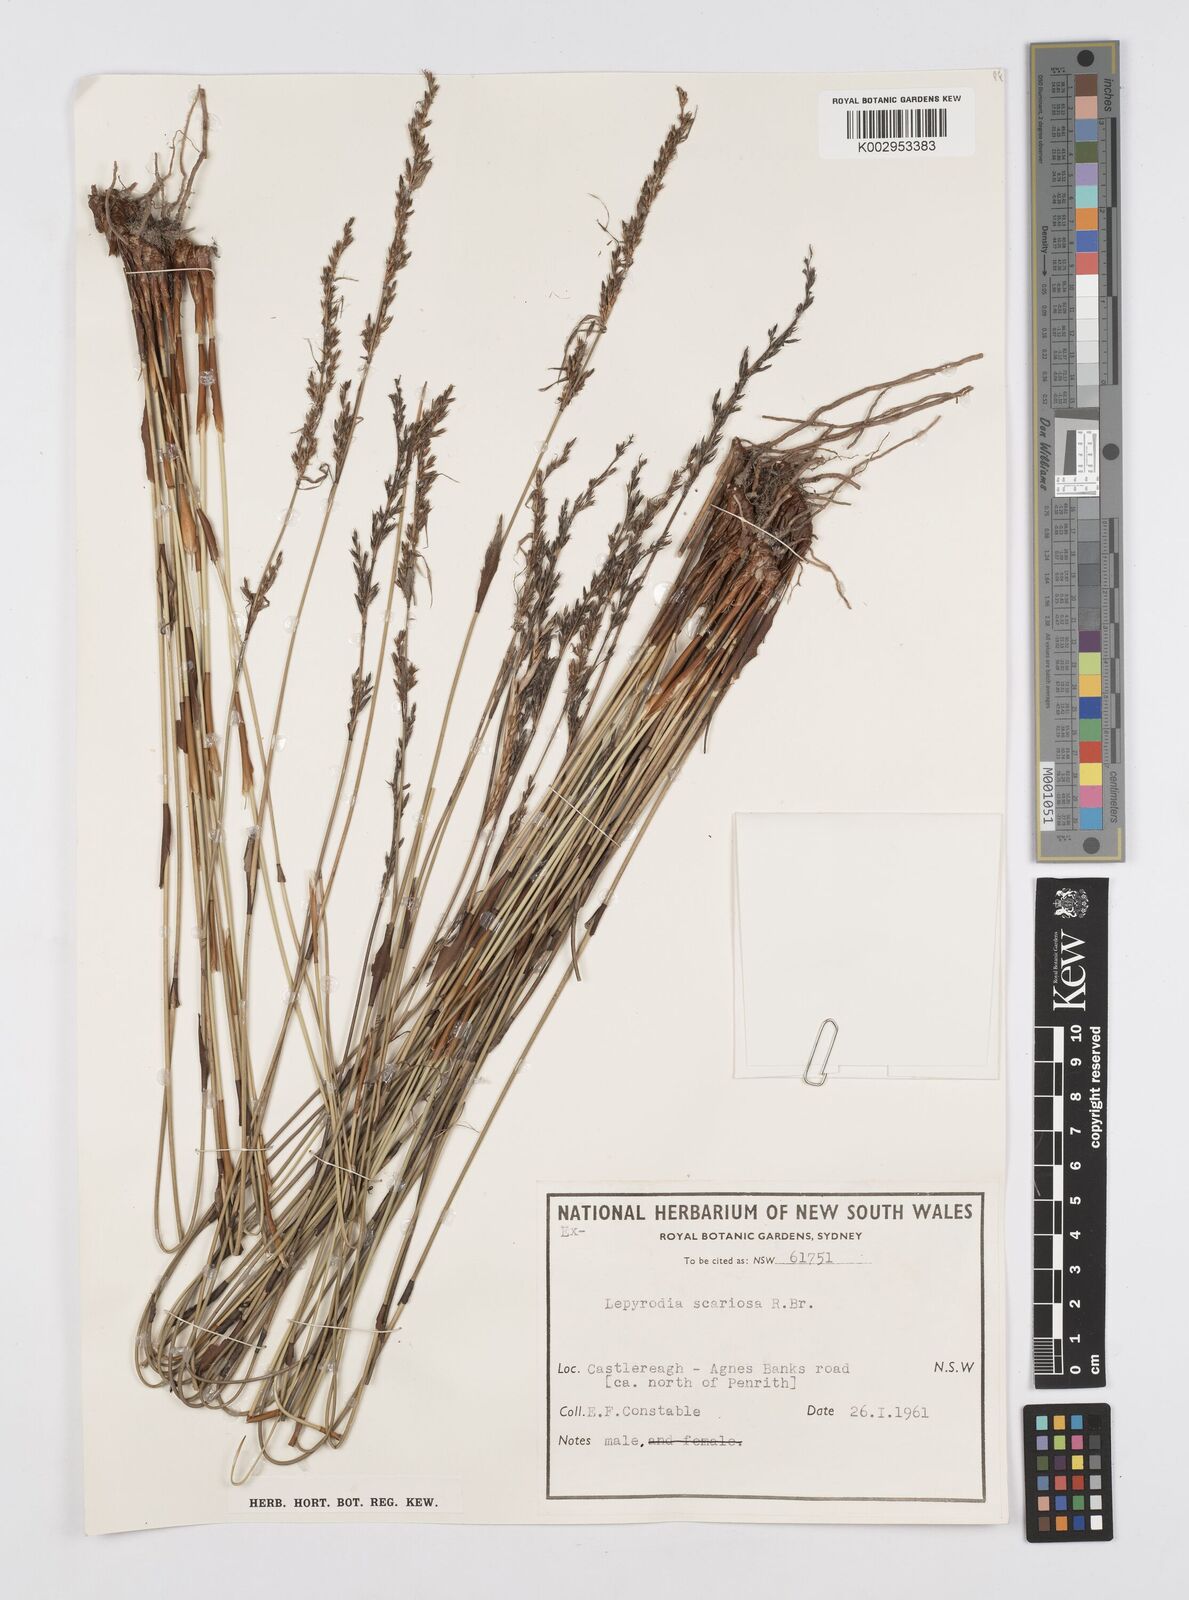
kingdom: Plantae
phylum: Tracheophyta
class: Liliopsida
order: Poales
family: Restionaceae
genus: Lepyrodia
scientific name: Lepyrodia scariosa
